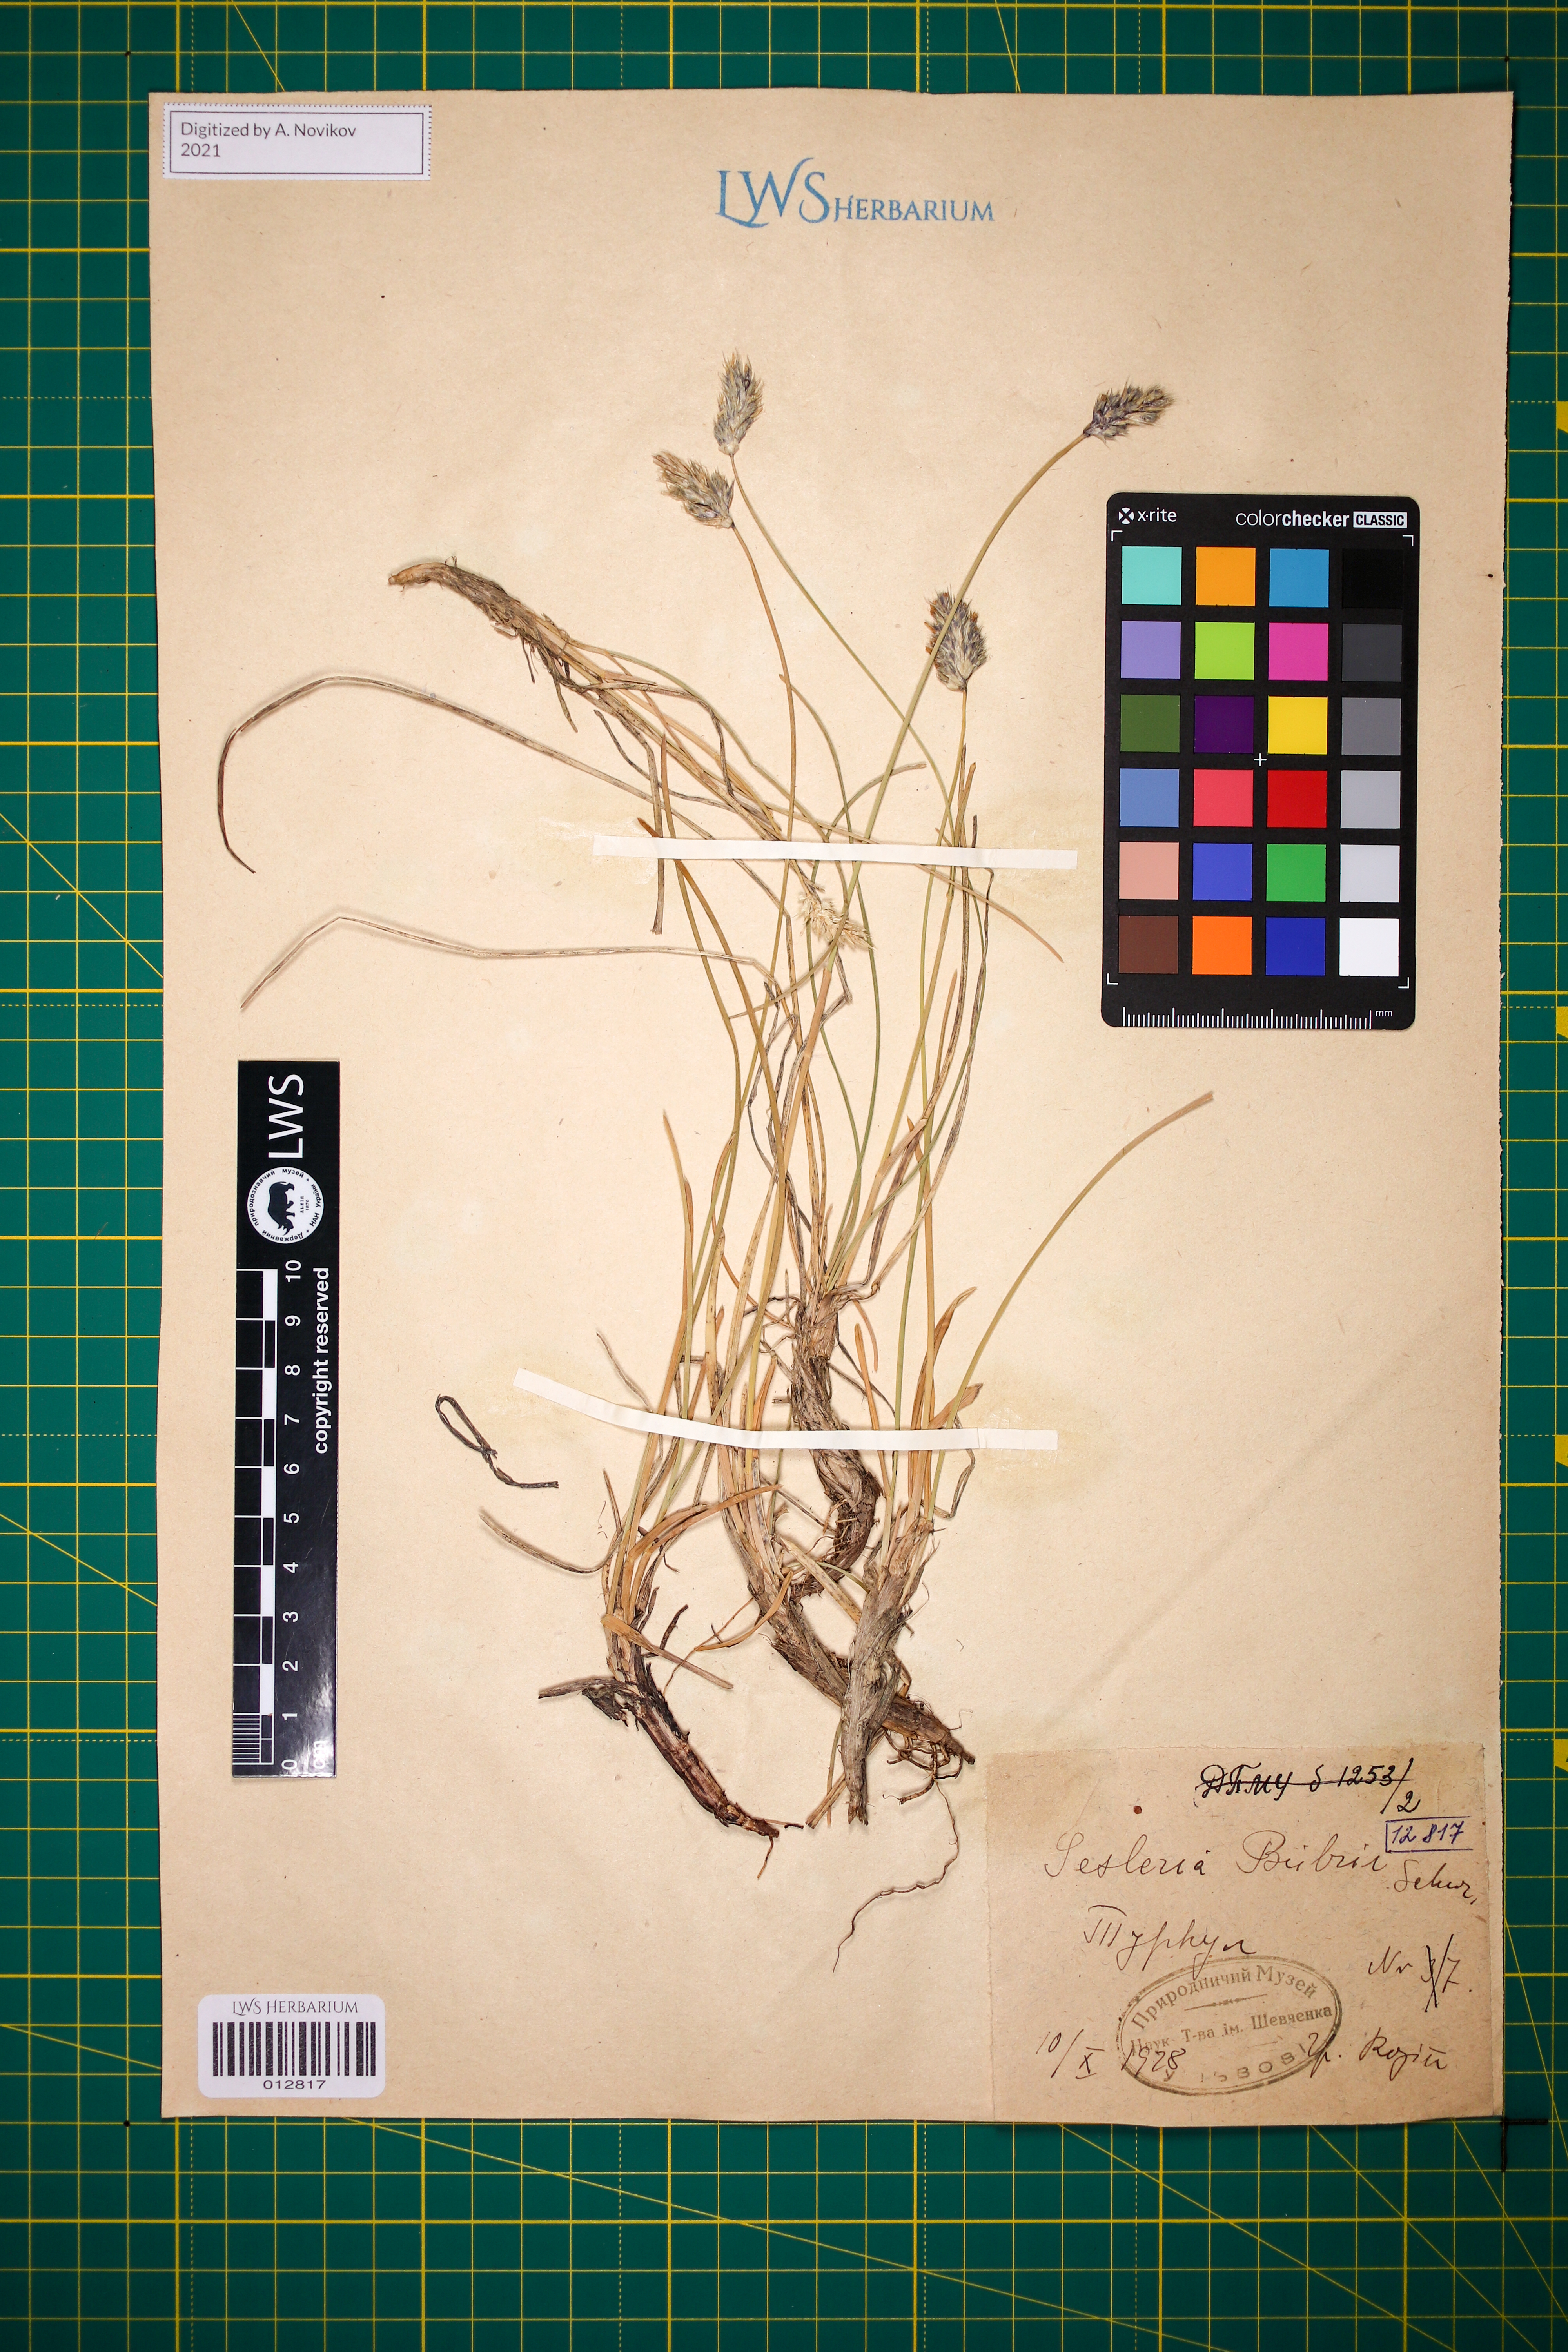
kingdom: Plantae
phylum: Tracheophyta
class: Liliopsida
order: Poales
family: Poaceae
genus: Sesleria
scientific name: Sesleria bielzii
